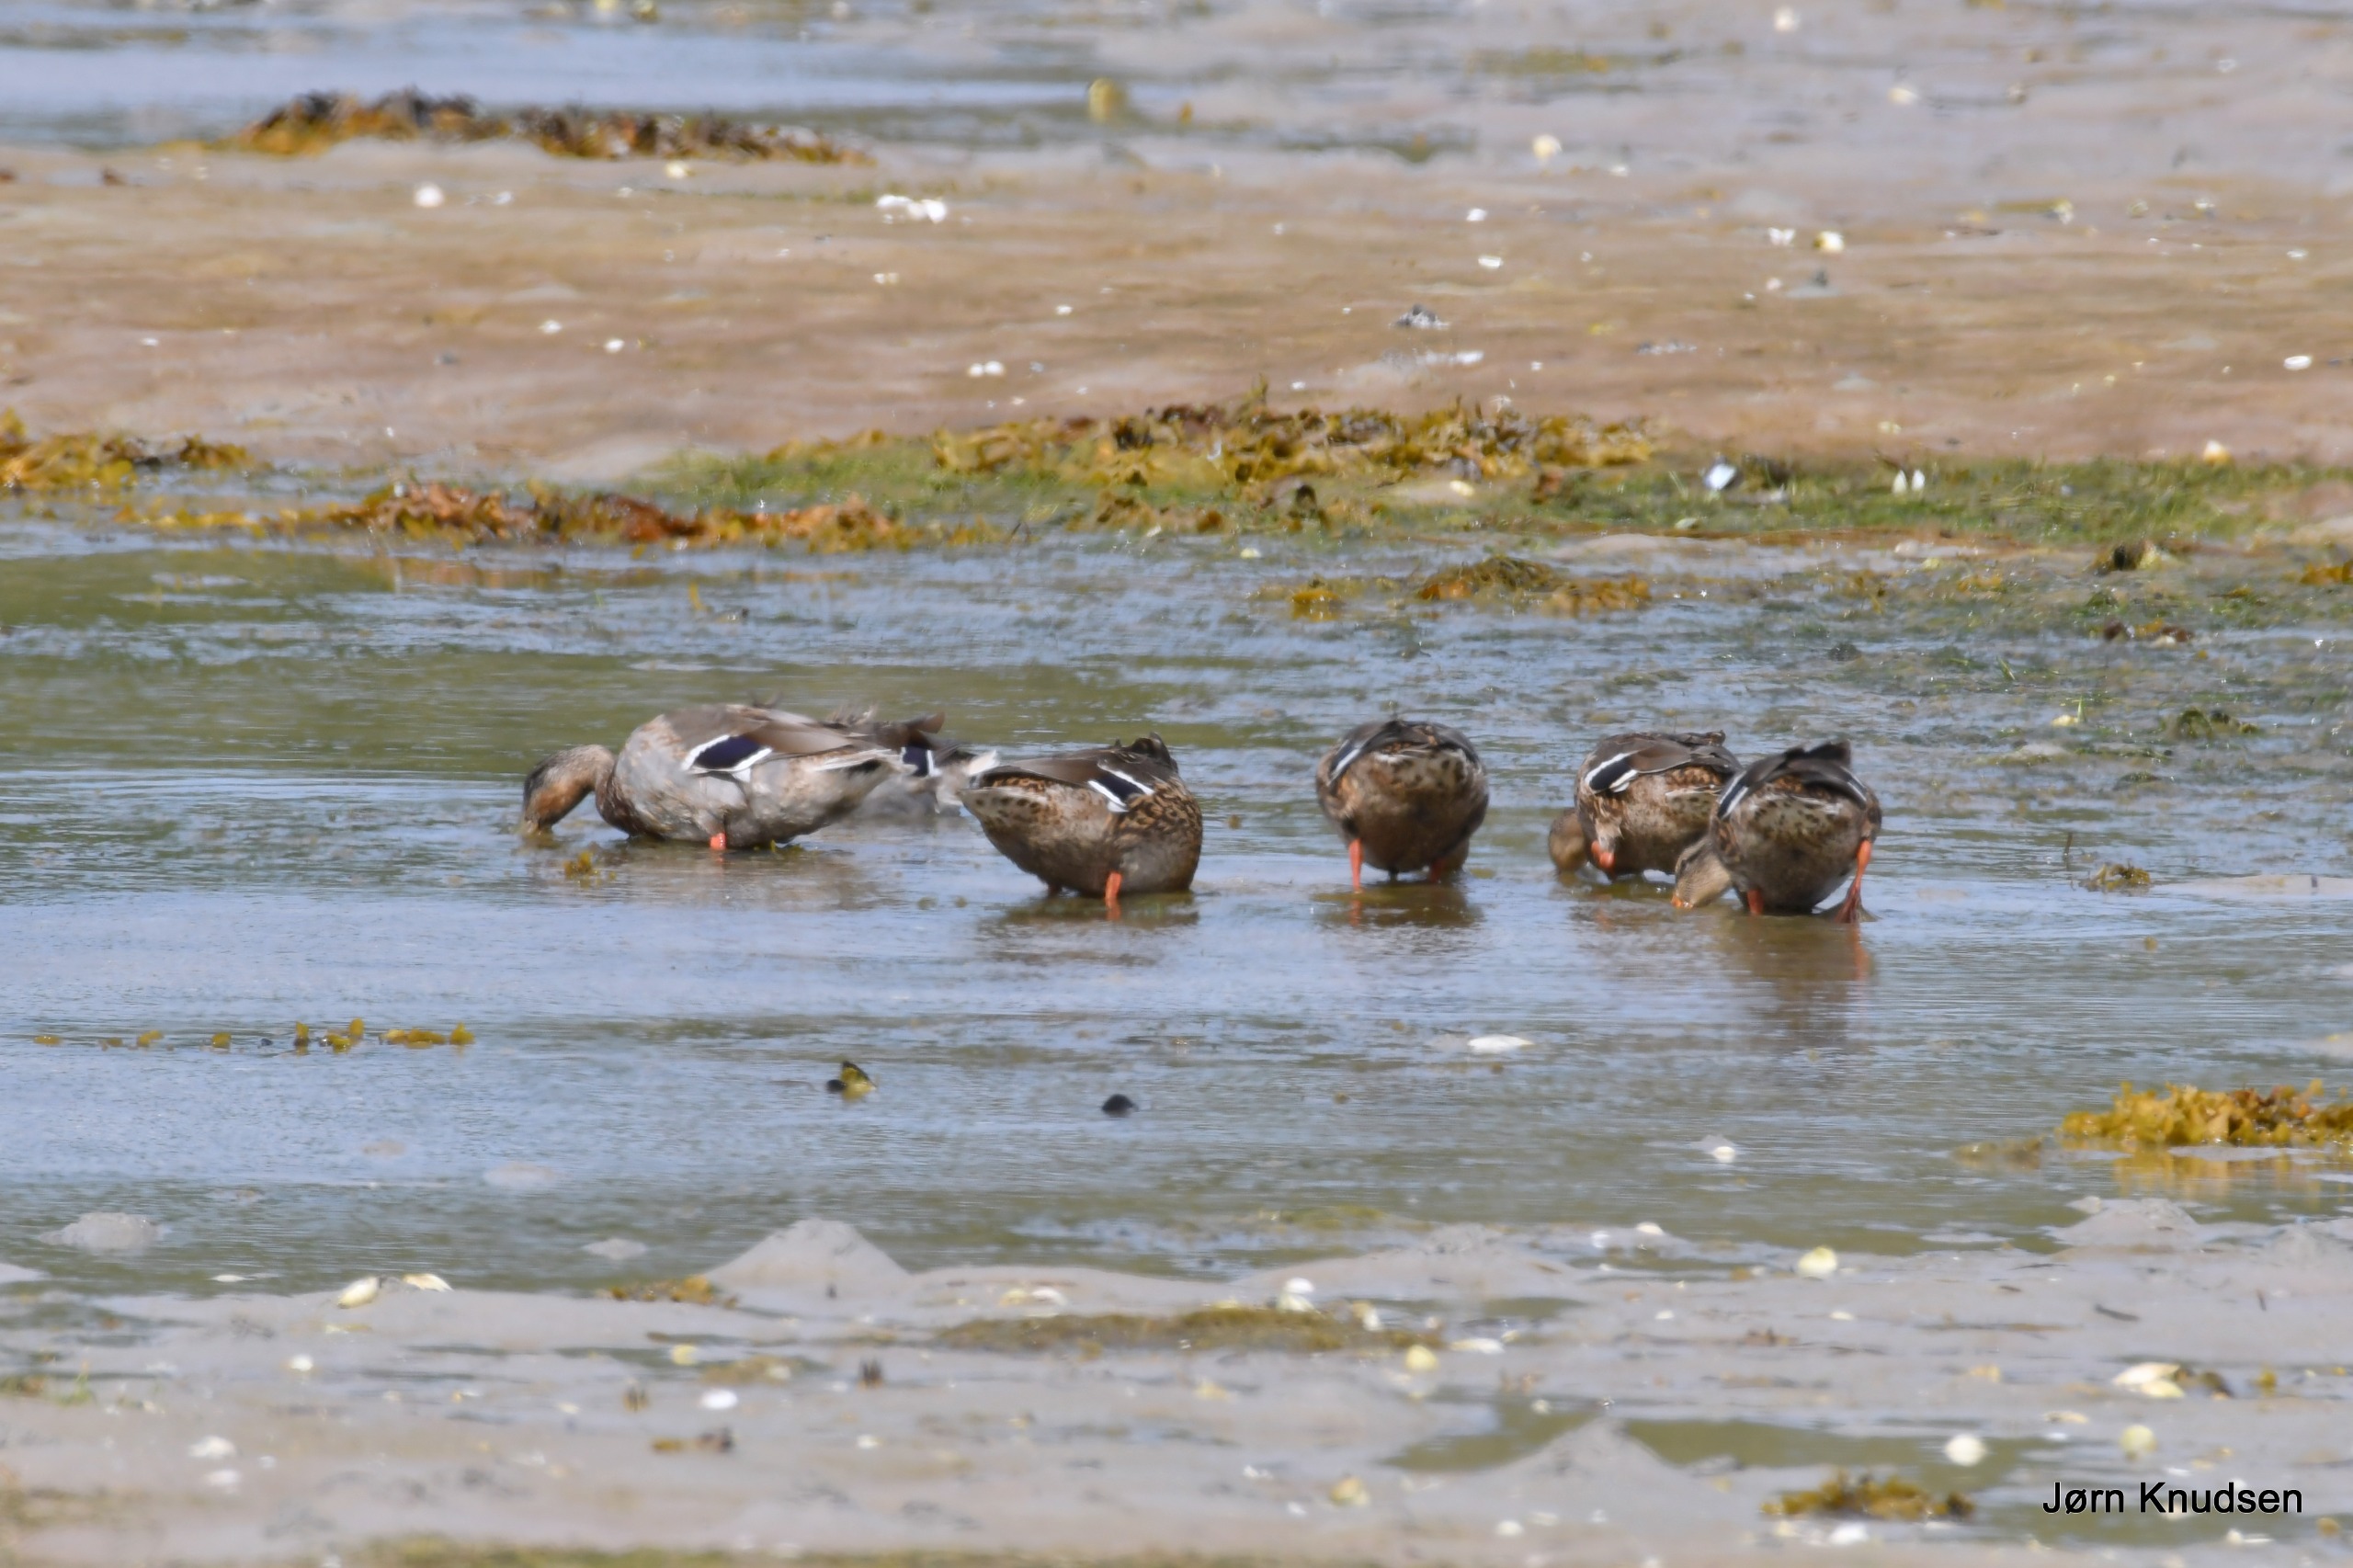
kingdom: Animalia
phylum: Chordata
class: Aves
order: Anseriformes
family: Anatidae
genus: Anas
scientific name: Anas platyrhynchos
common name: Gråand
